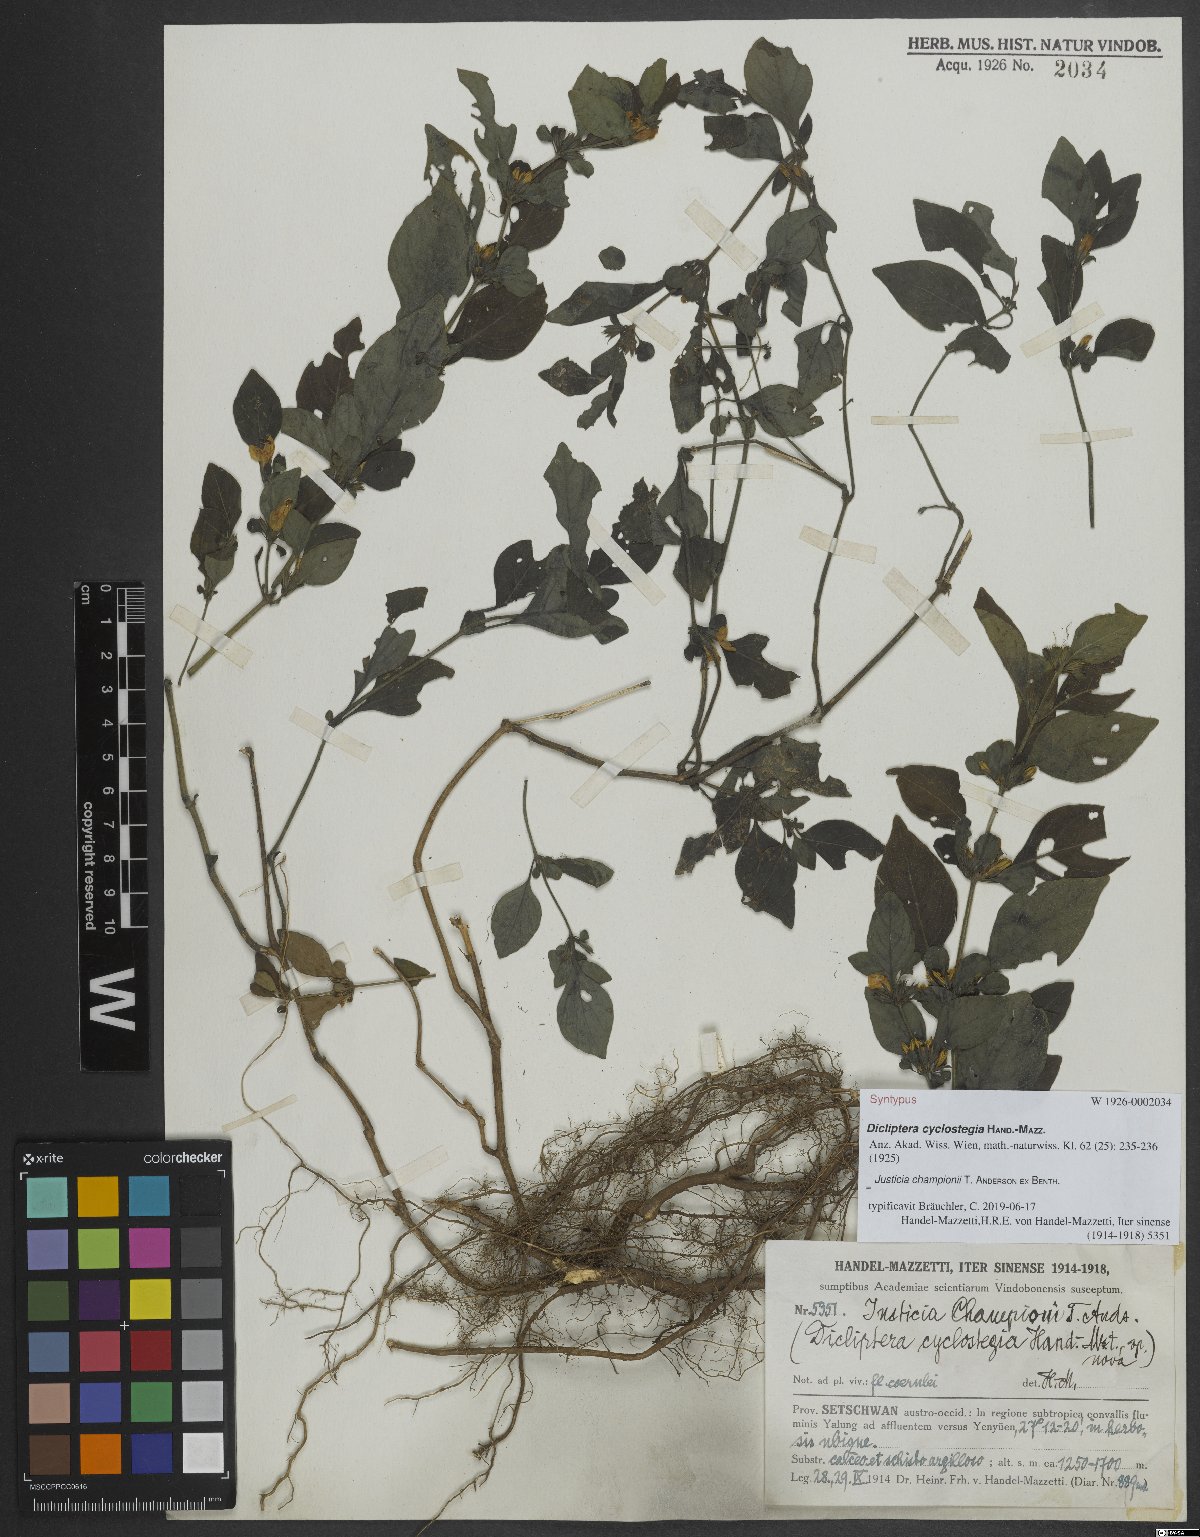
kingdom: Plantae
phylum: Tracheophyta
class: Magnoliopsida
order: Lamiales
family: Acanthaceae
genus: Justicia
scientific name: Justicia championii
